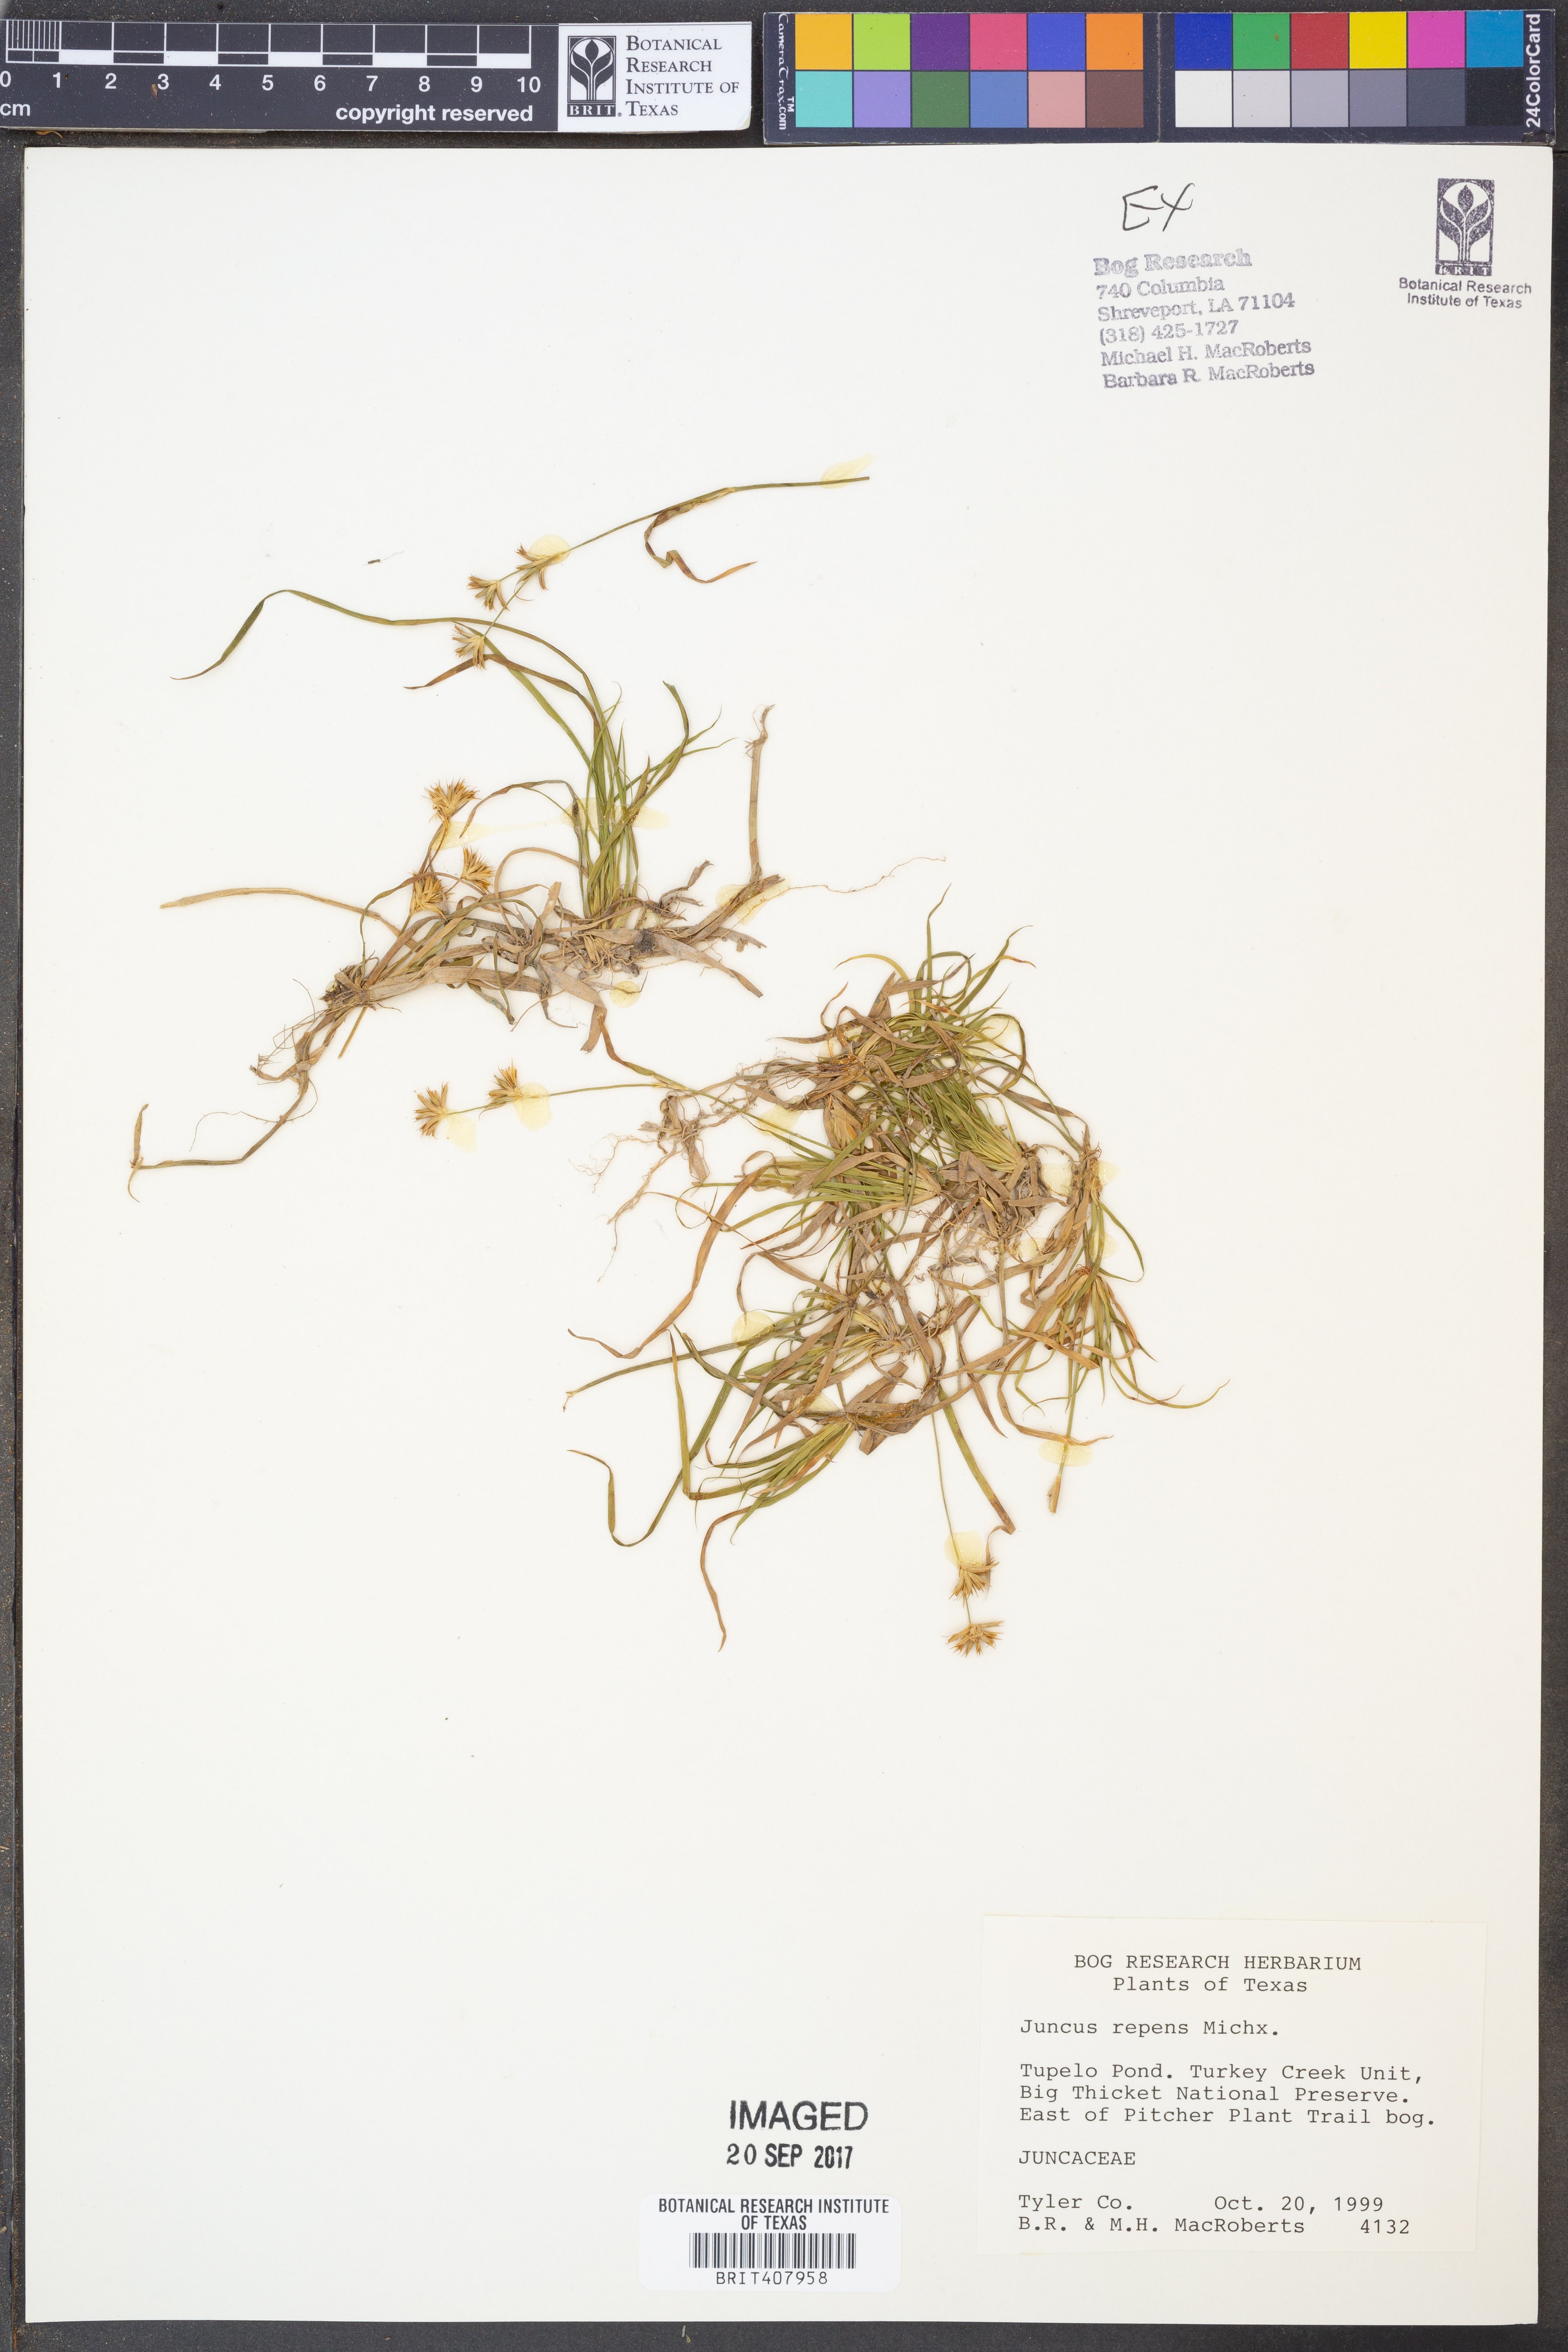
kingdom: Plantae
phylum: Tracheophyta
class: Liliopsida
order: Poales
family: Juncaceae
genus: Juncus
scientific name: Juncus repens
